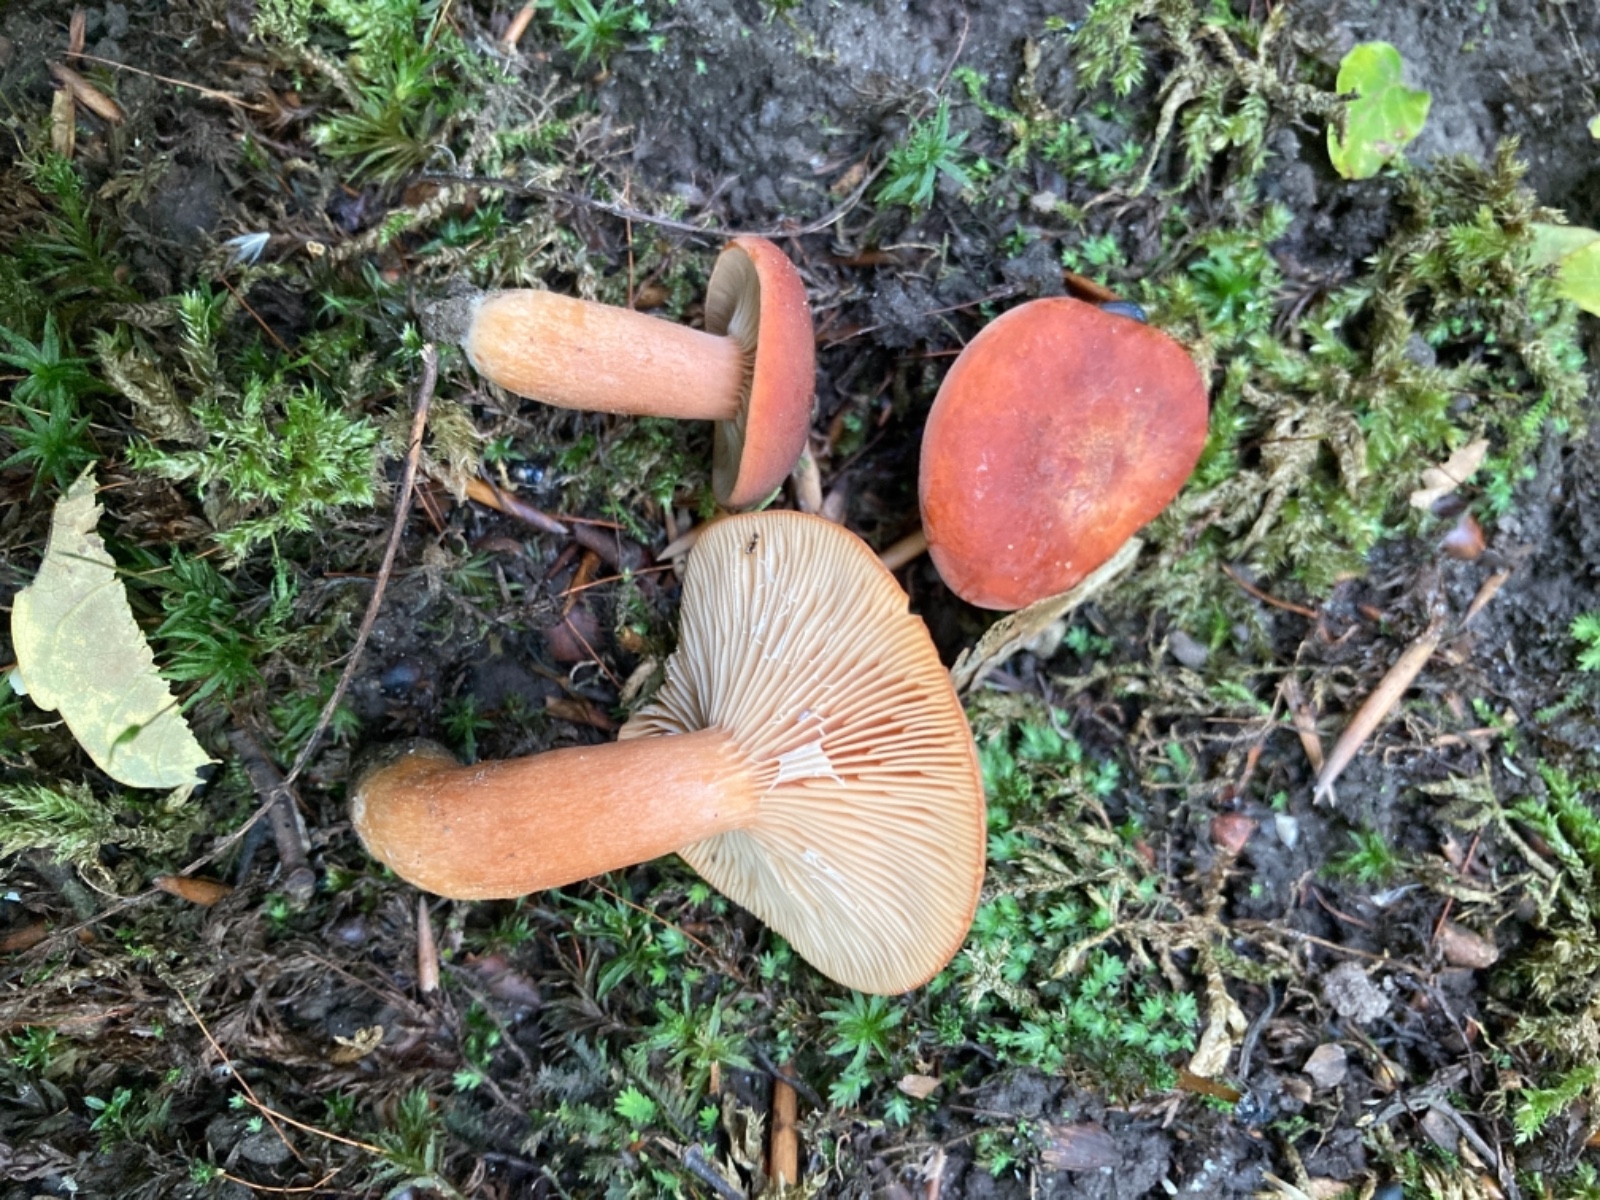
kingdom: Fungi
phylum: Basidiomycota
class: Agaricomycetes
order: Russulales
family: Russulaceae
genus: Lactarius
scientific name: Lactarius fulvissimus
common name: ræve-mælkehat
